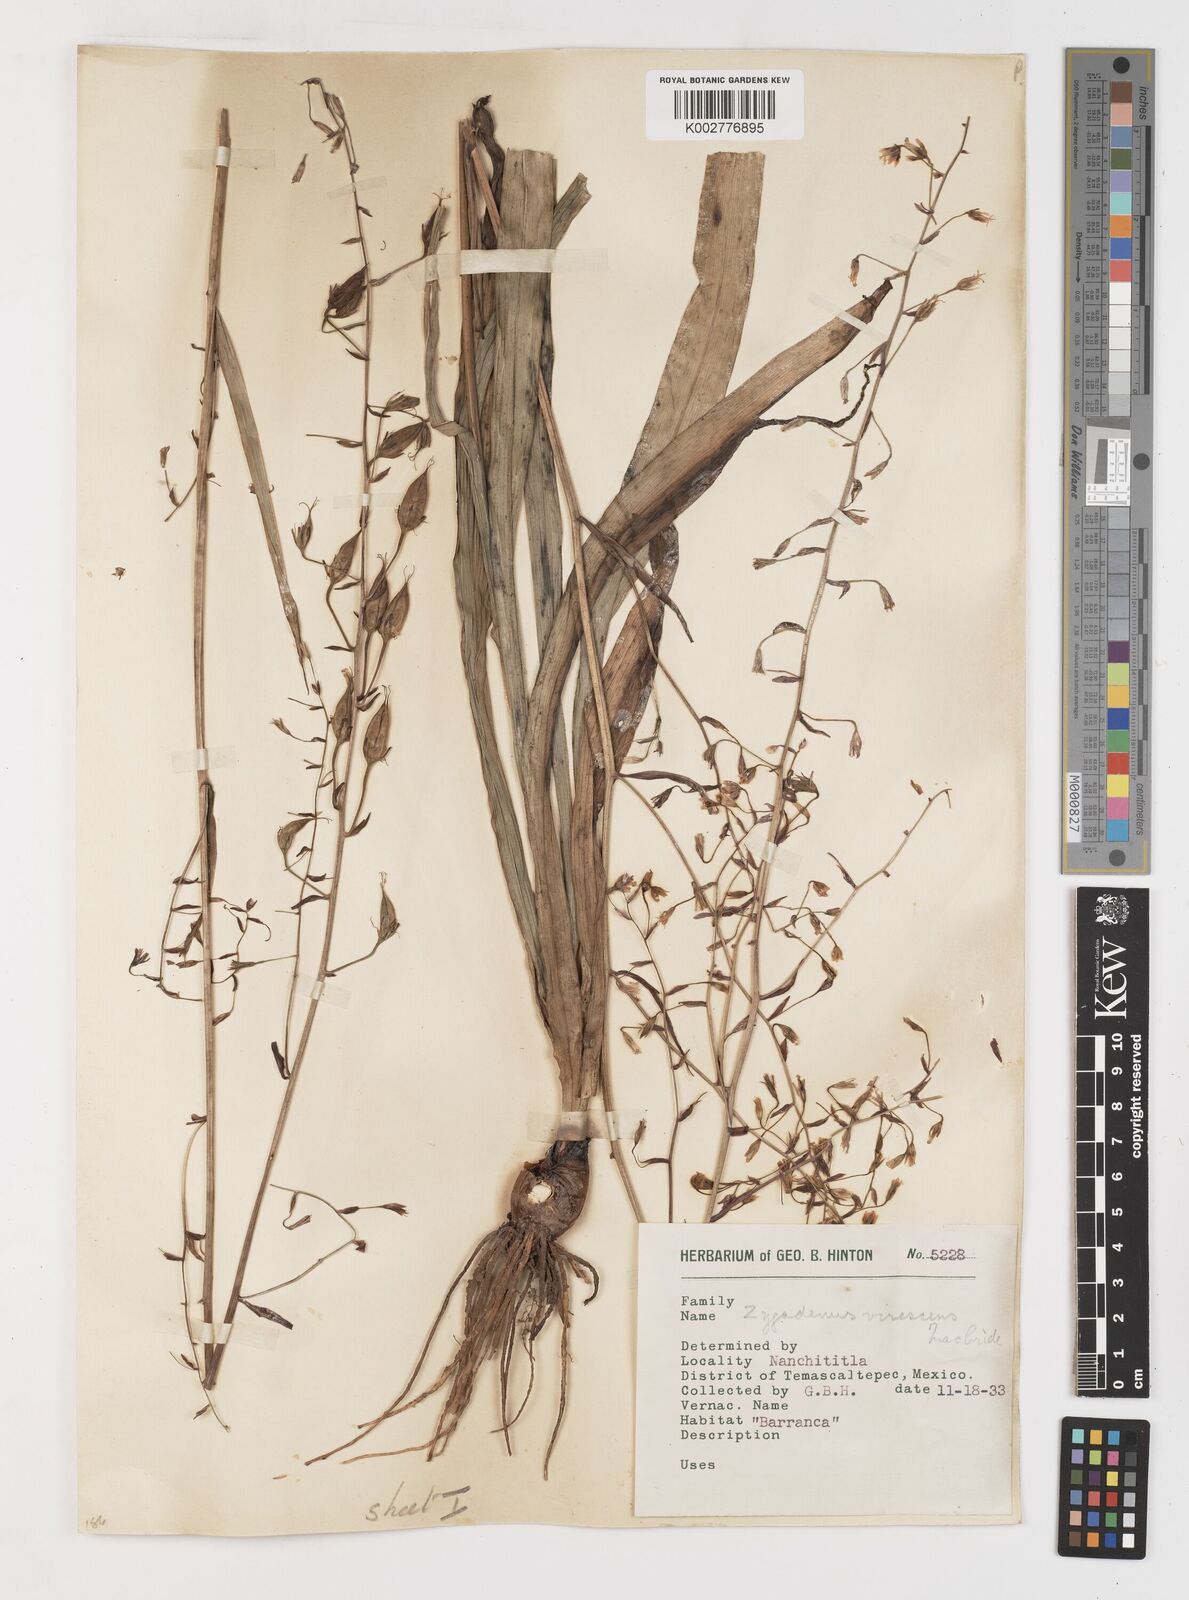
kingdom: Plantae
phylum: Tracheophyta
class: Liliopsida
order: Liliales
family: Melanthiaceae
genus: Anticlea
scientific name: Anticlea virescens
